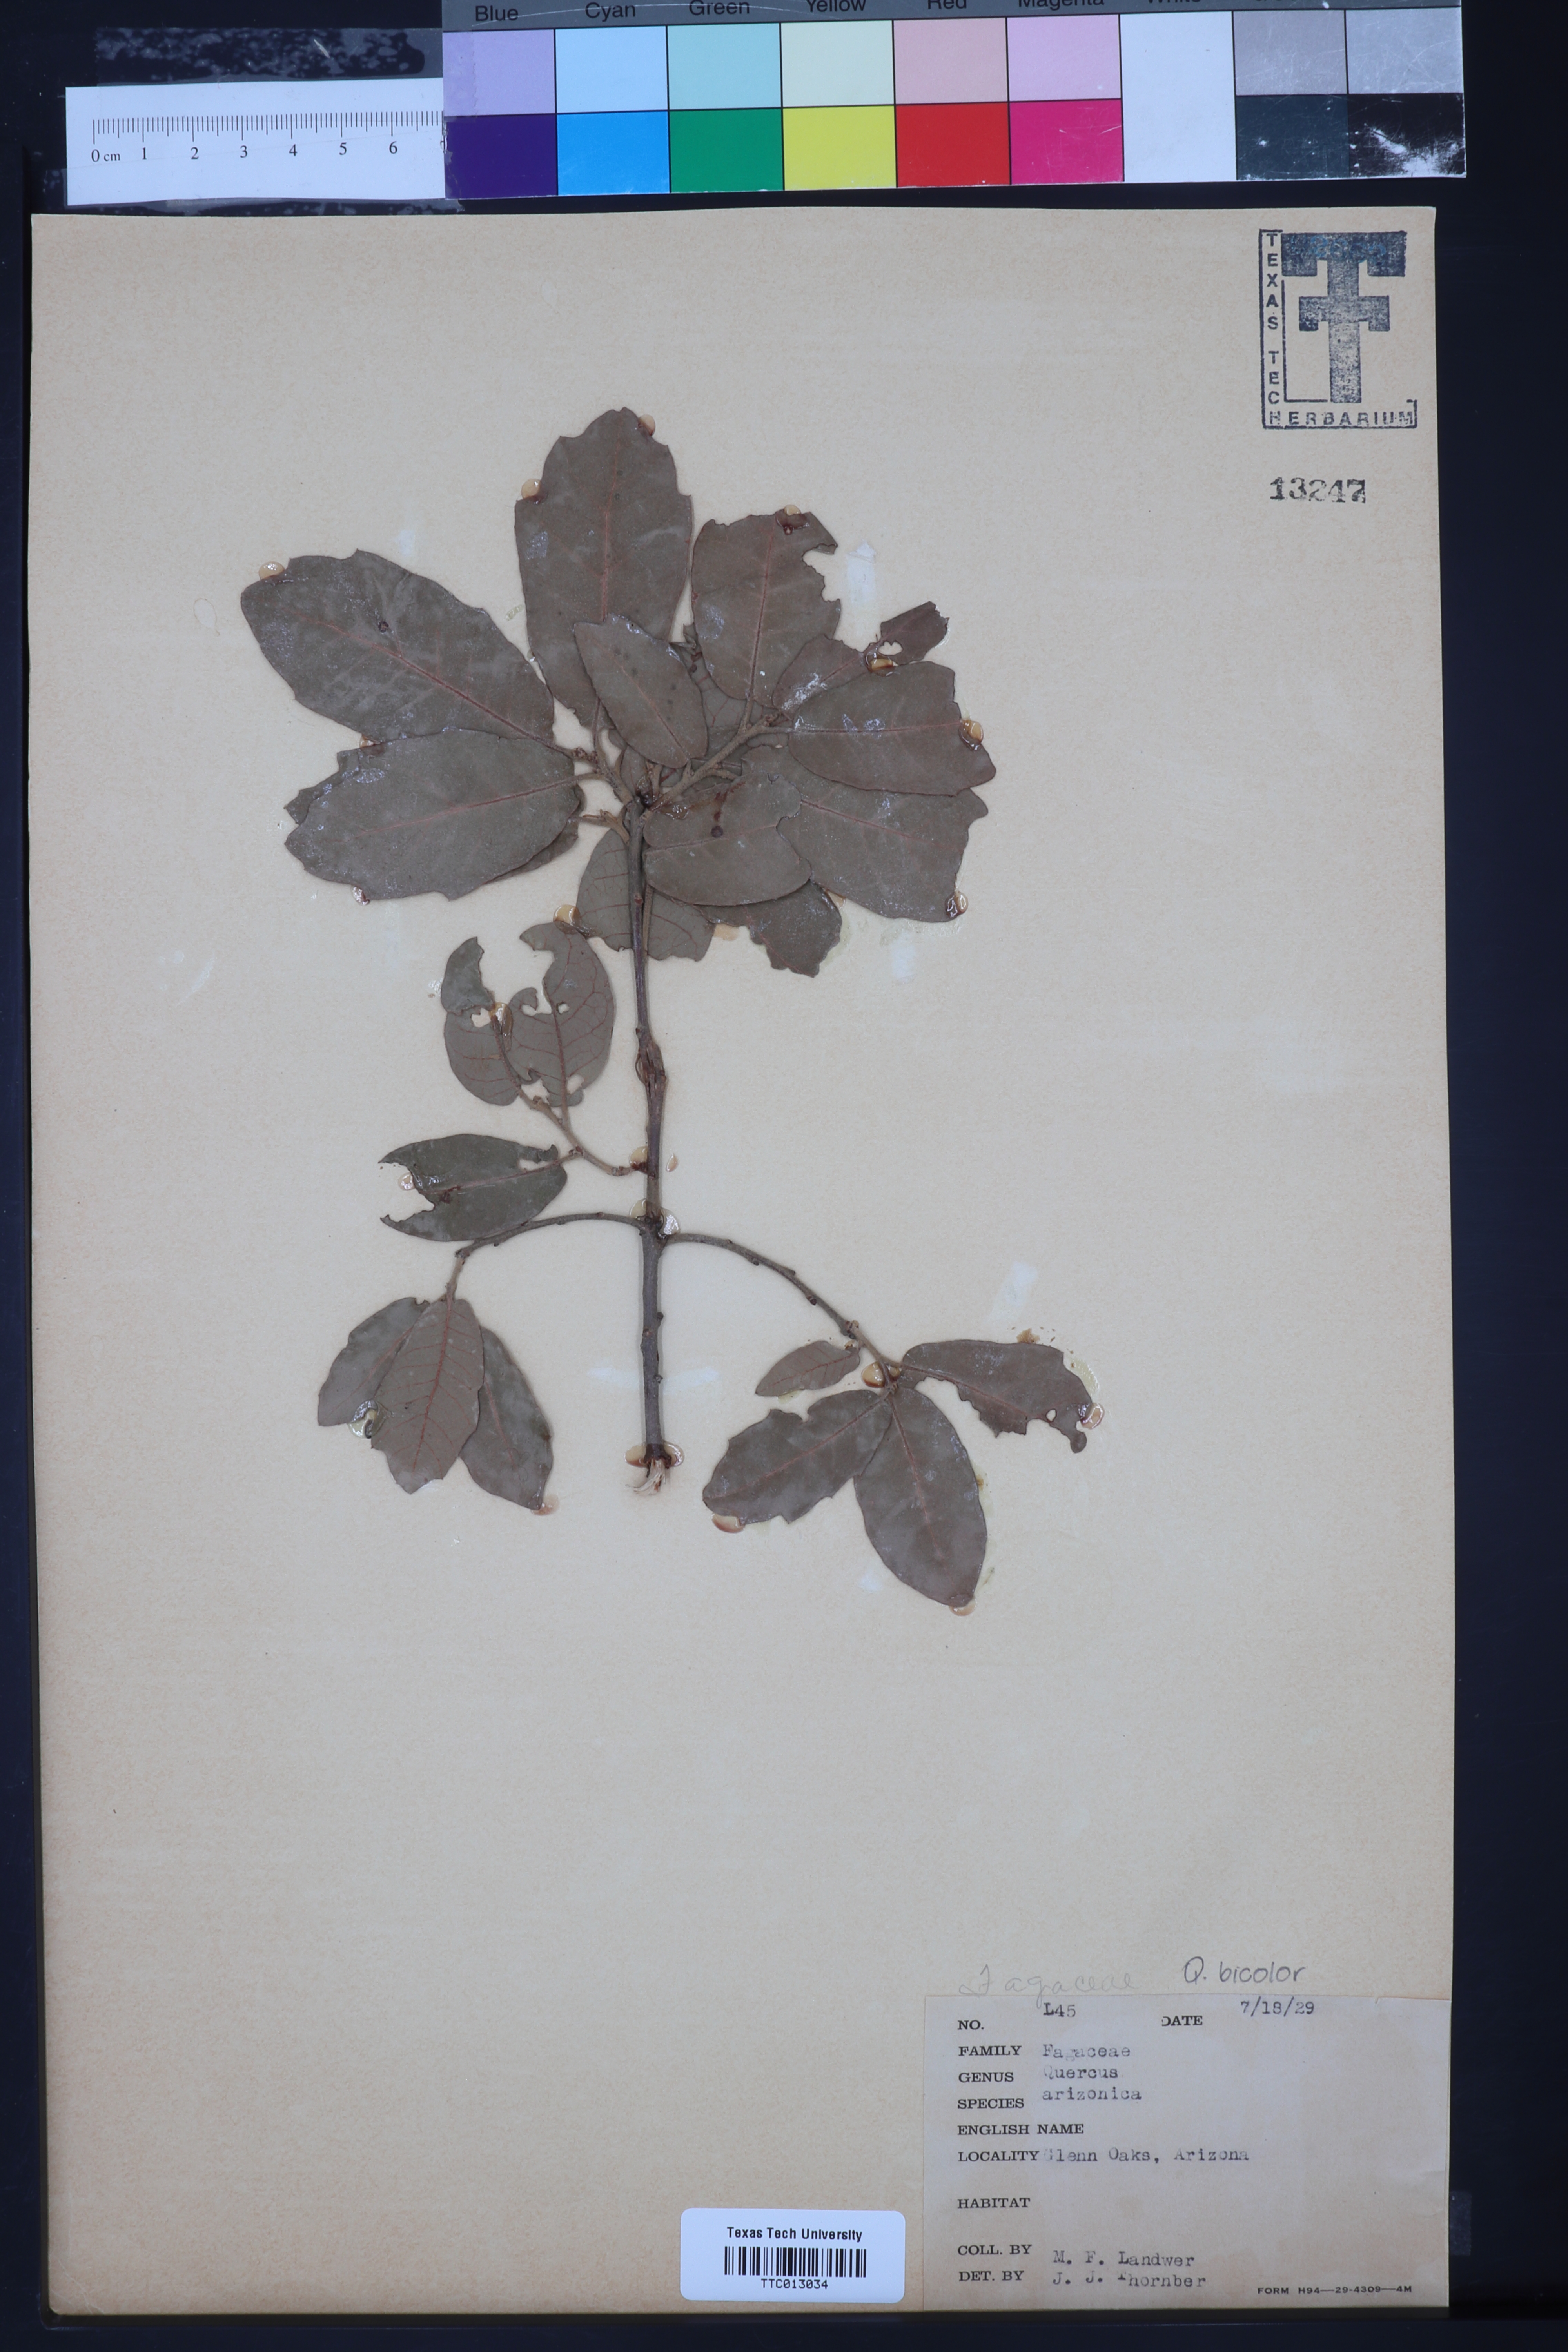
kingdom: Plantae
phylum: Tracheophyta
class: Magnoliopsida
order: Fagales
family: Fagaceae
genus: Quercus
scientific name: Quercus arizonica
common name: Arizona white oak
